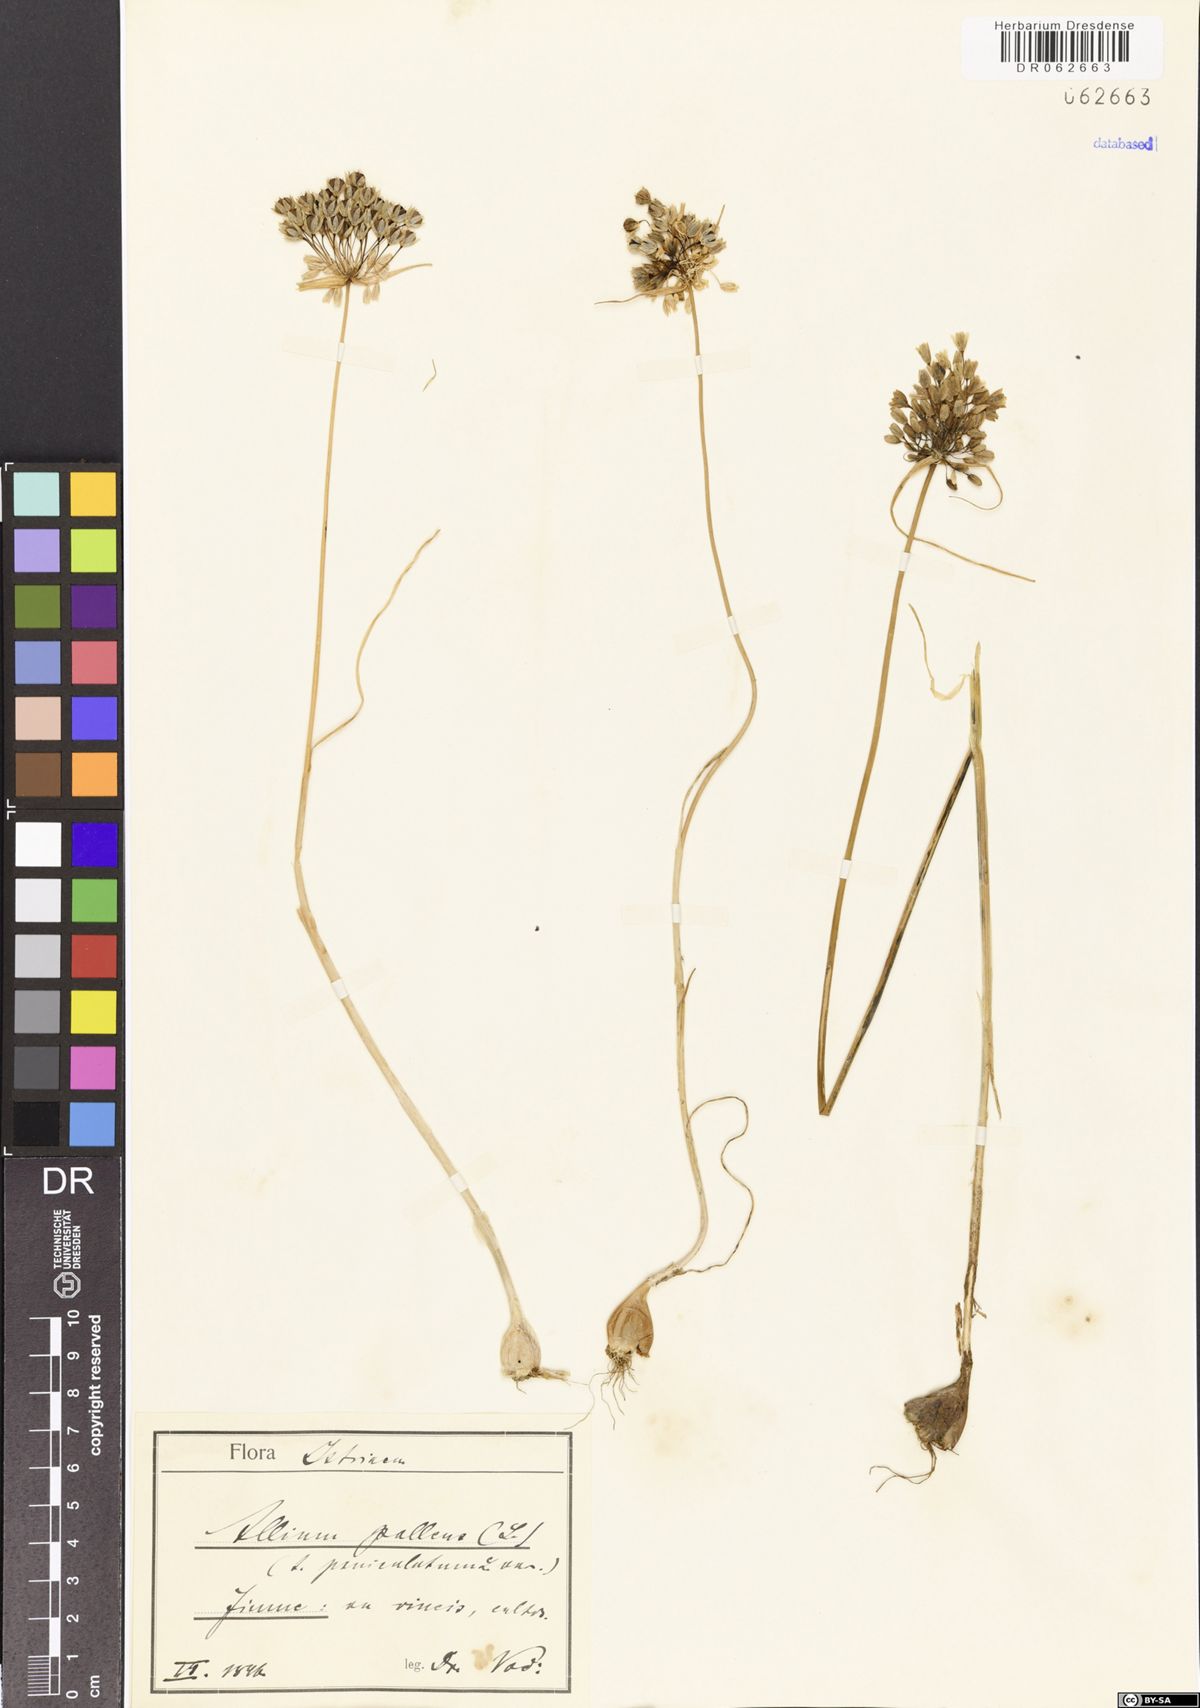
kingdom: Plantae
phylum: Tracheophyta
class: Liliopsida
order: Asparagales
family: Amaryllidaceae
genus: Allium
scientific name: Allium pallens
